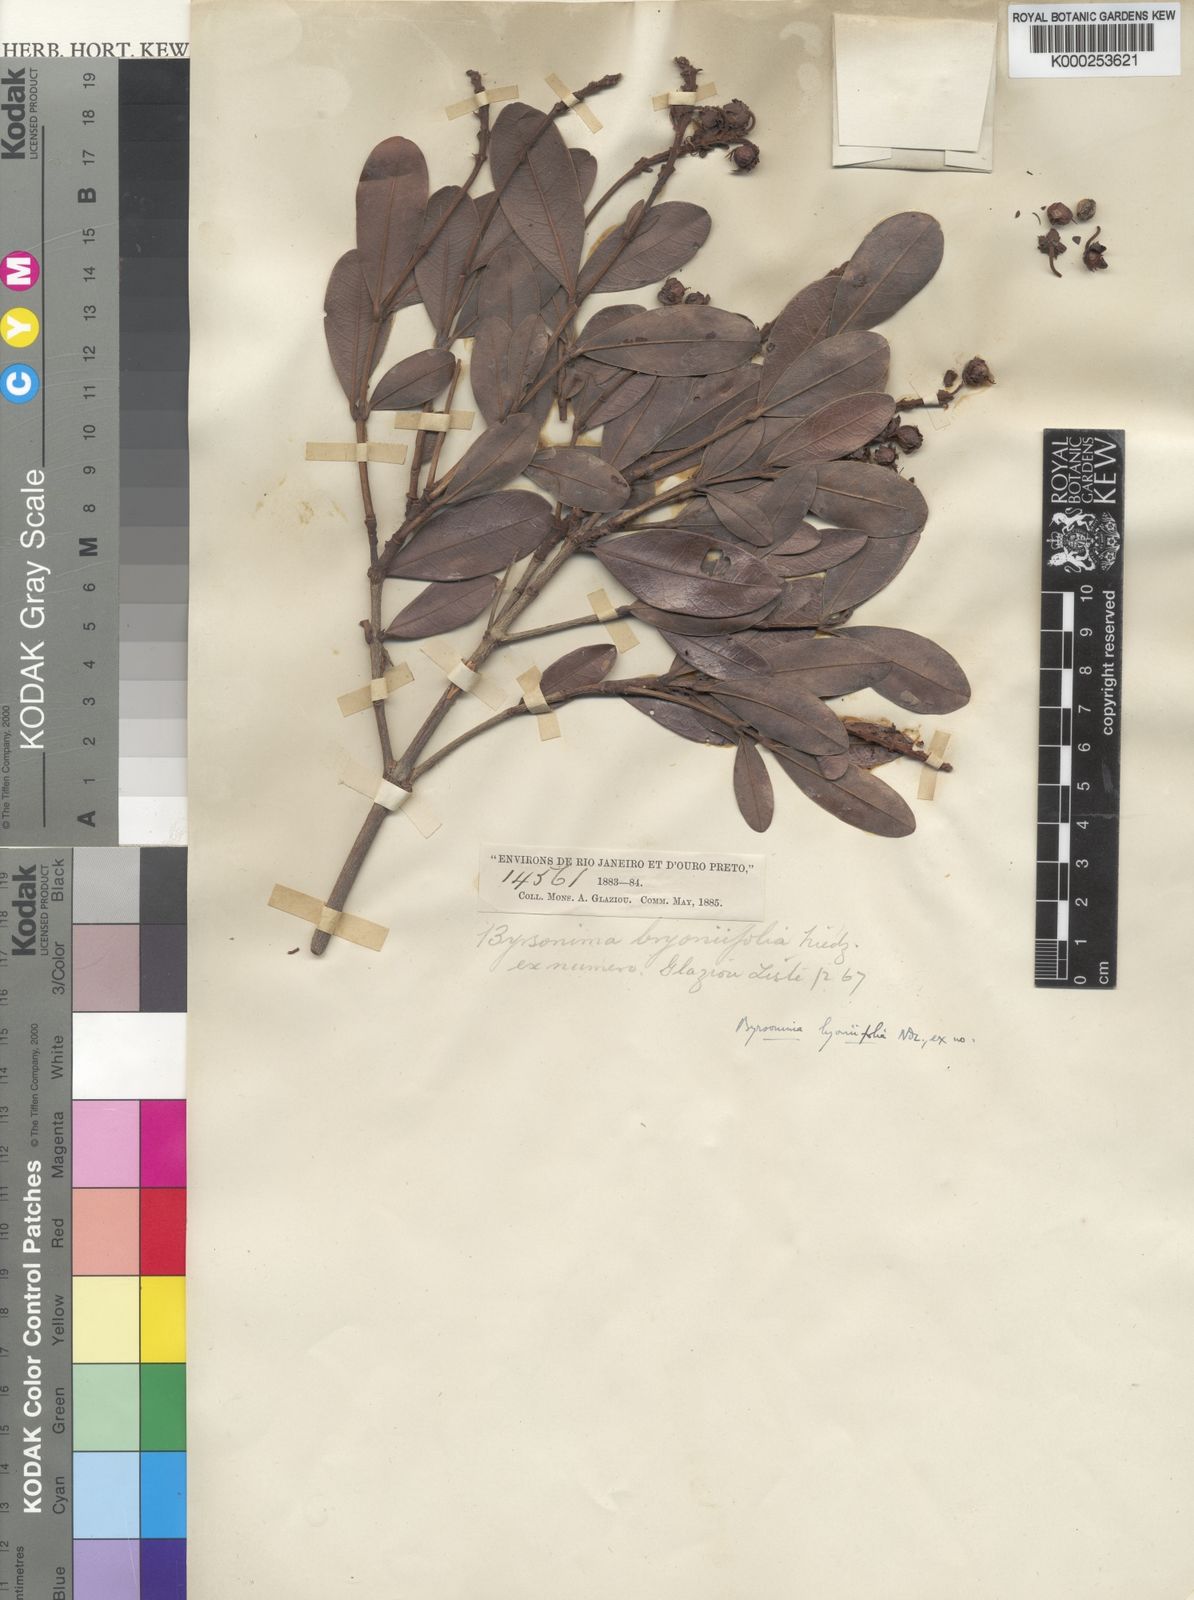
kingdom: Plantae
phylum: Tracheophyta
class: Magnoliopsida
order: Malpighiales
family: Malpighiaceae
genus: Byrsonima
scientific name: Byrsonima lyoniifolia
